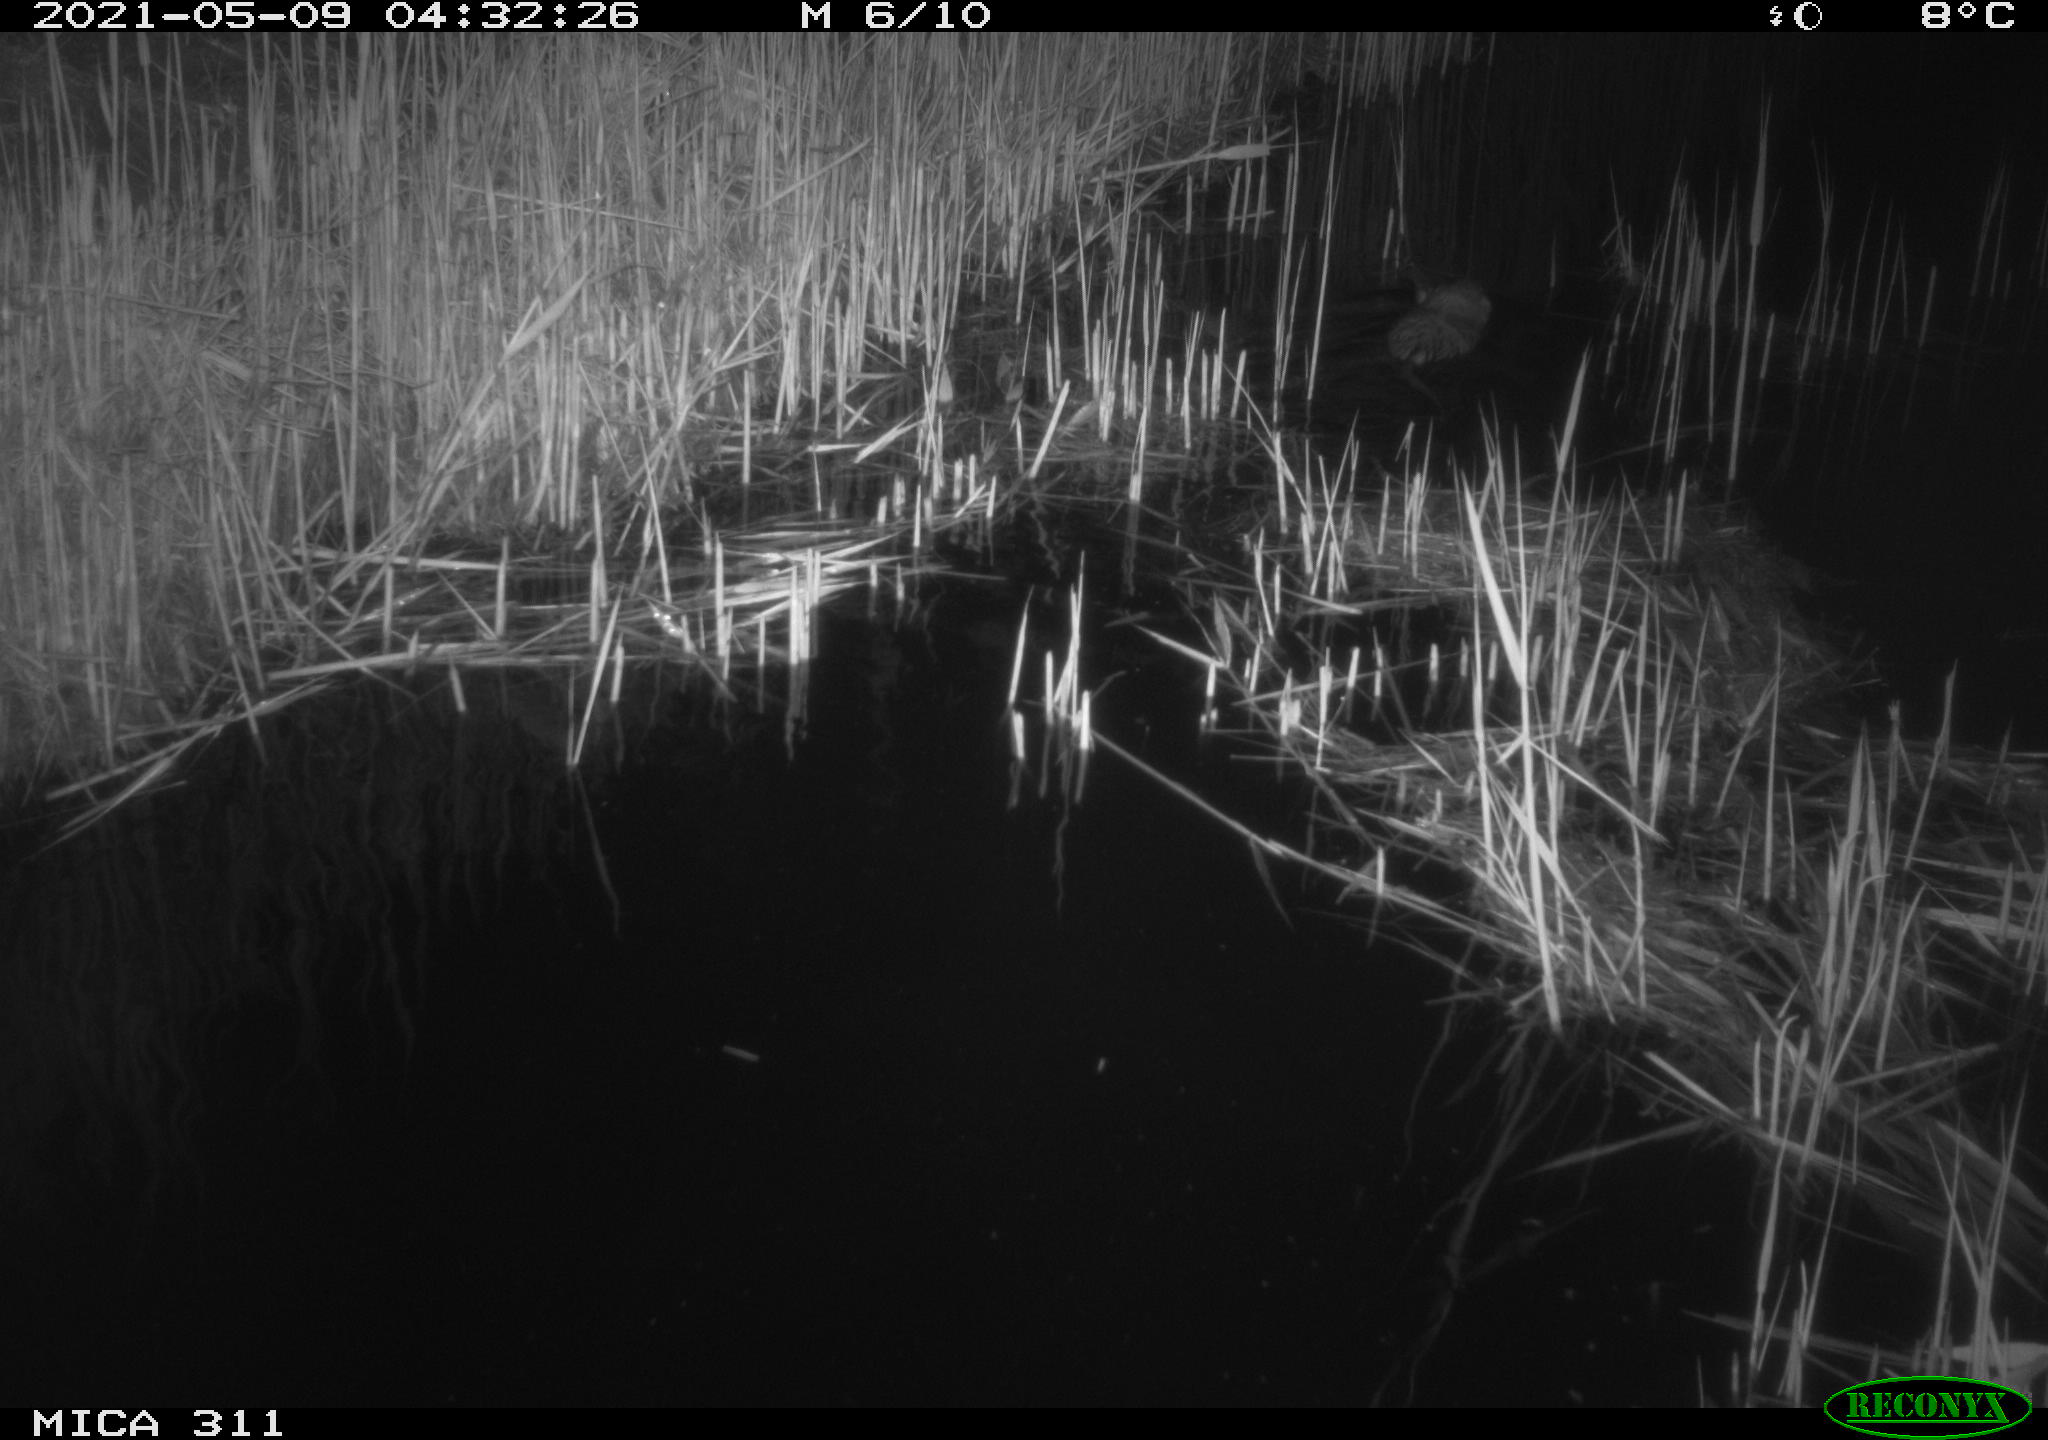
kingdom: Animalia
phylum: Chordata
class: Mammalia
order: Rodentia
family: Cricetidae
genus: Ondatra
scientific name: Ondatra zibethicus
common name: Muskrat
